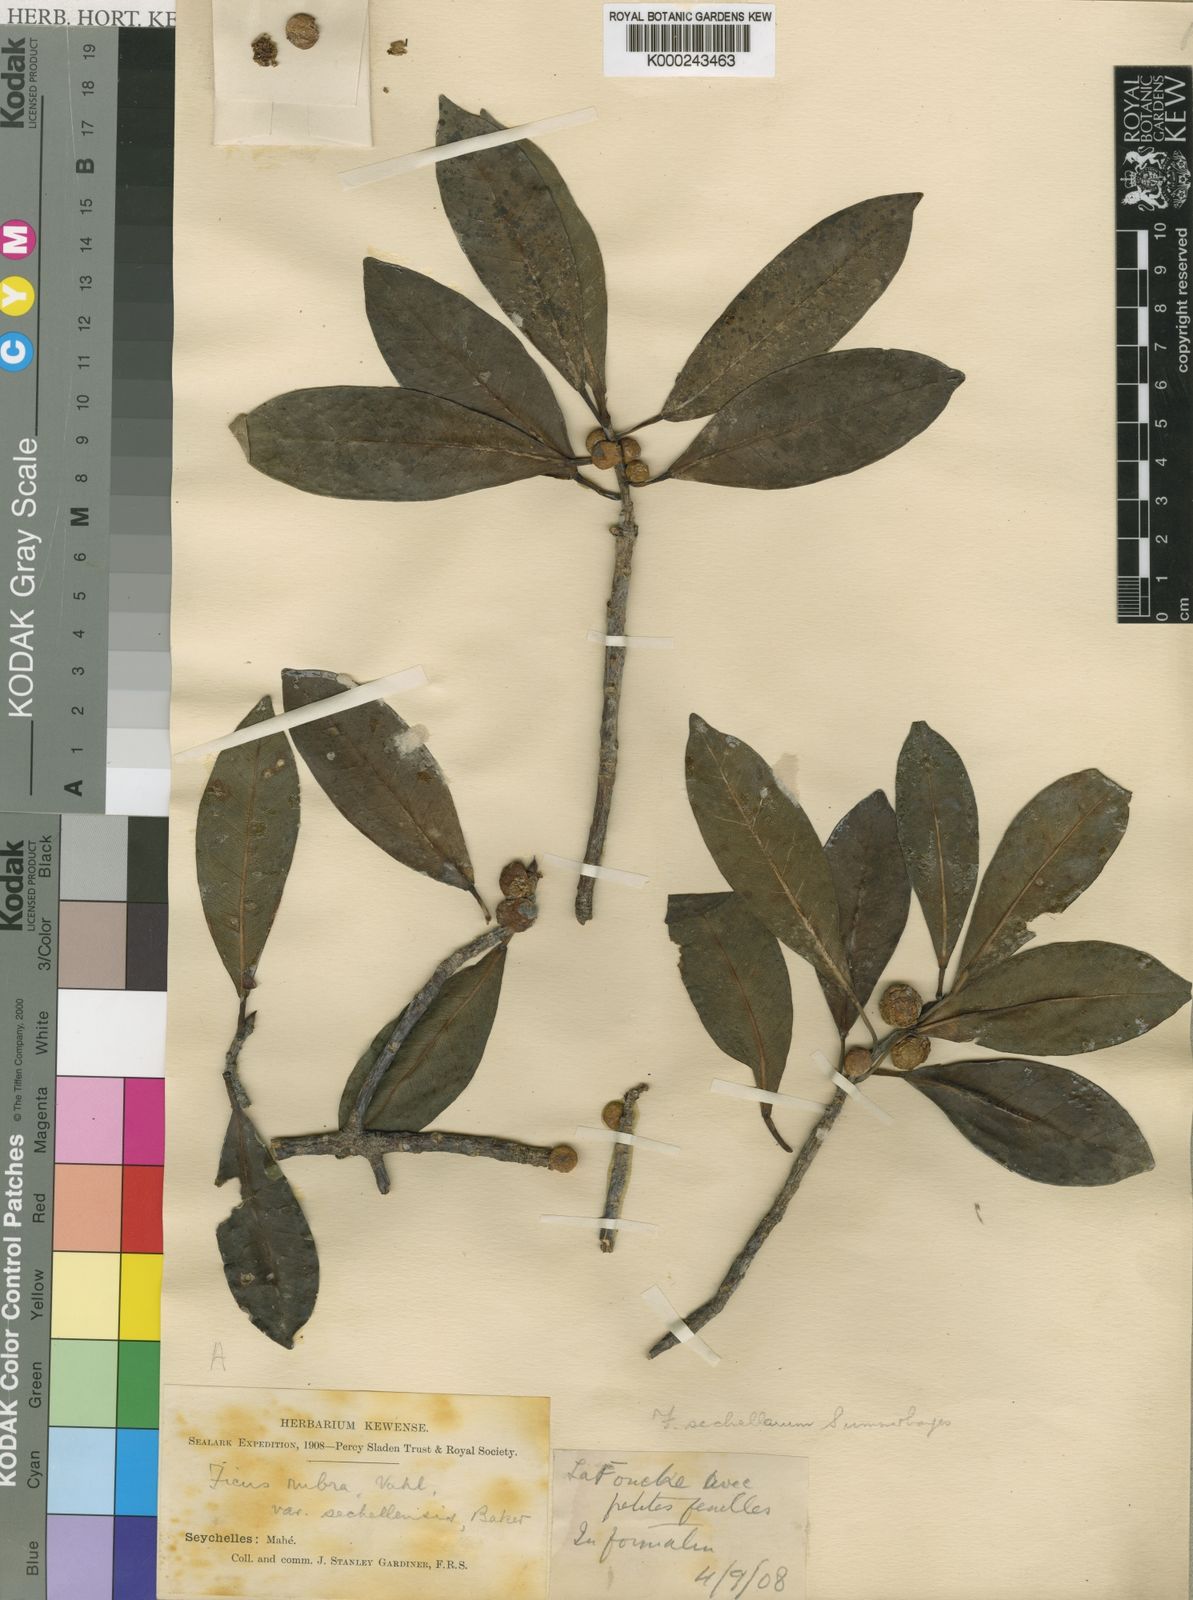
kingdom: Plantae
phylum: Tracheophyta
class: Magnoliopsida
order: Rosales
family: Moraceae
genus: Ficus
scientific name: Ficus reflexa
